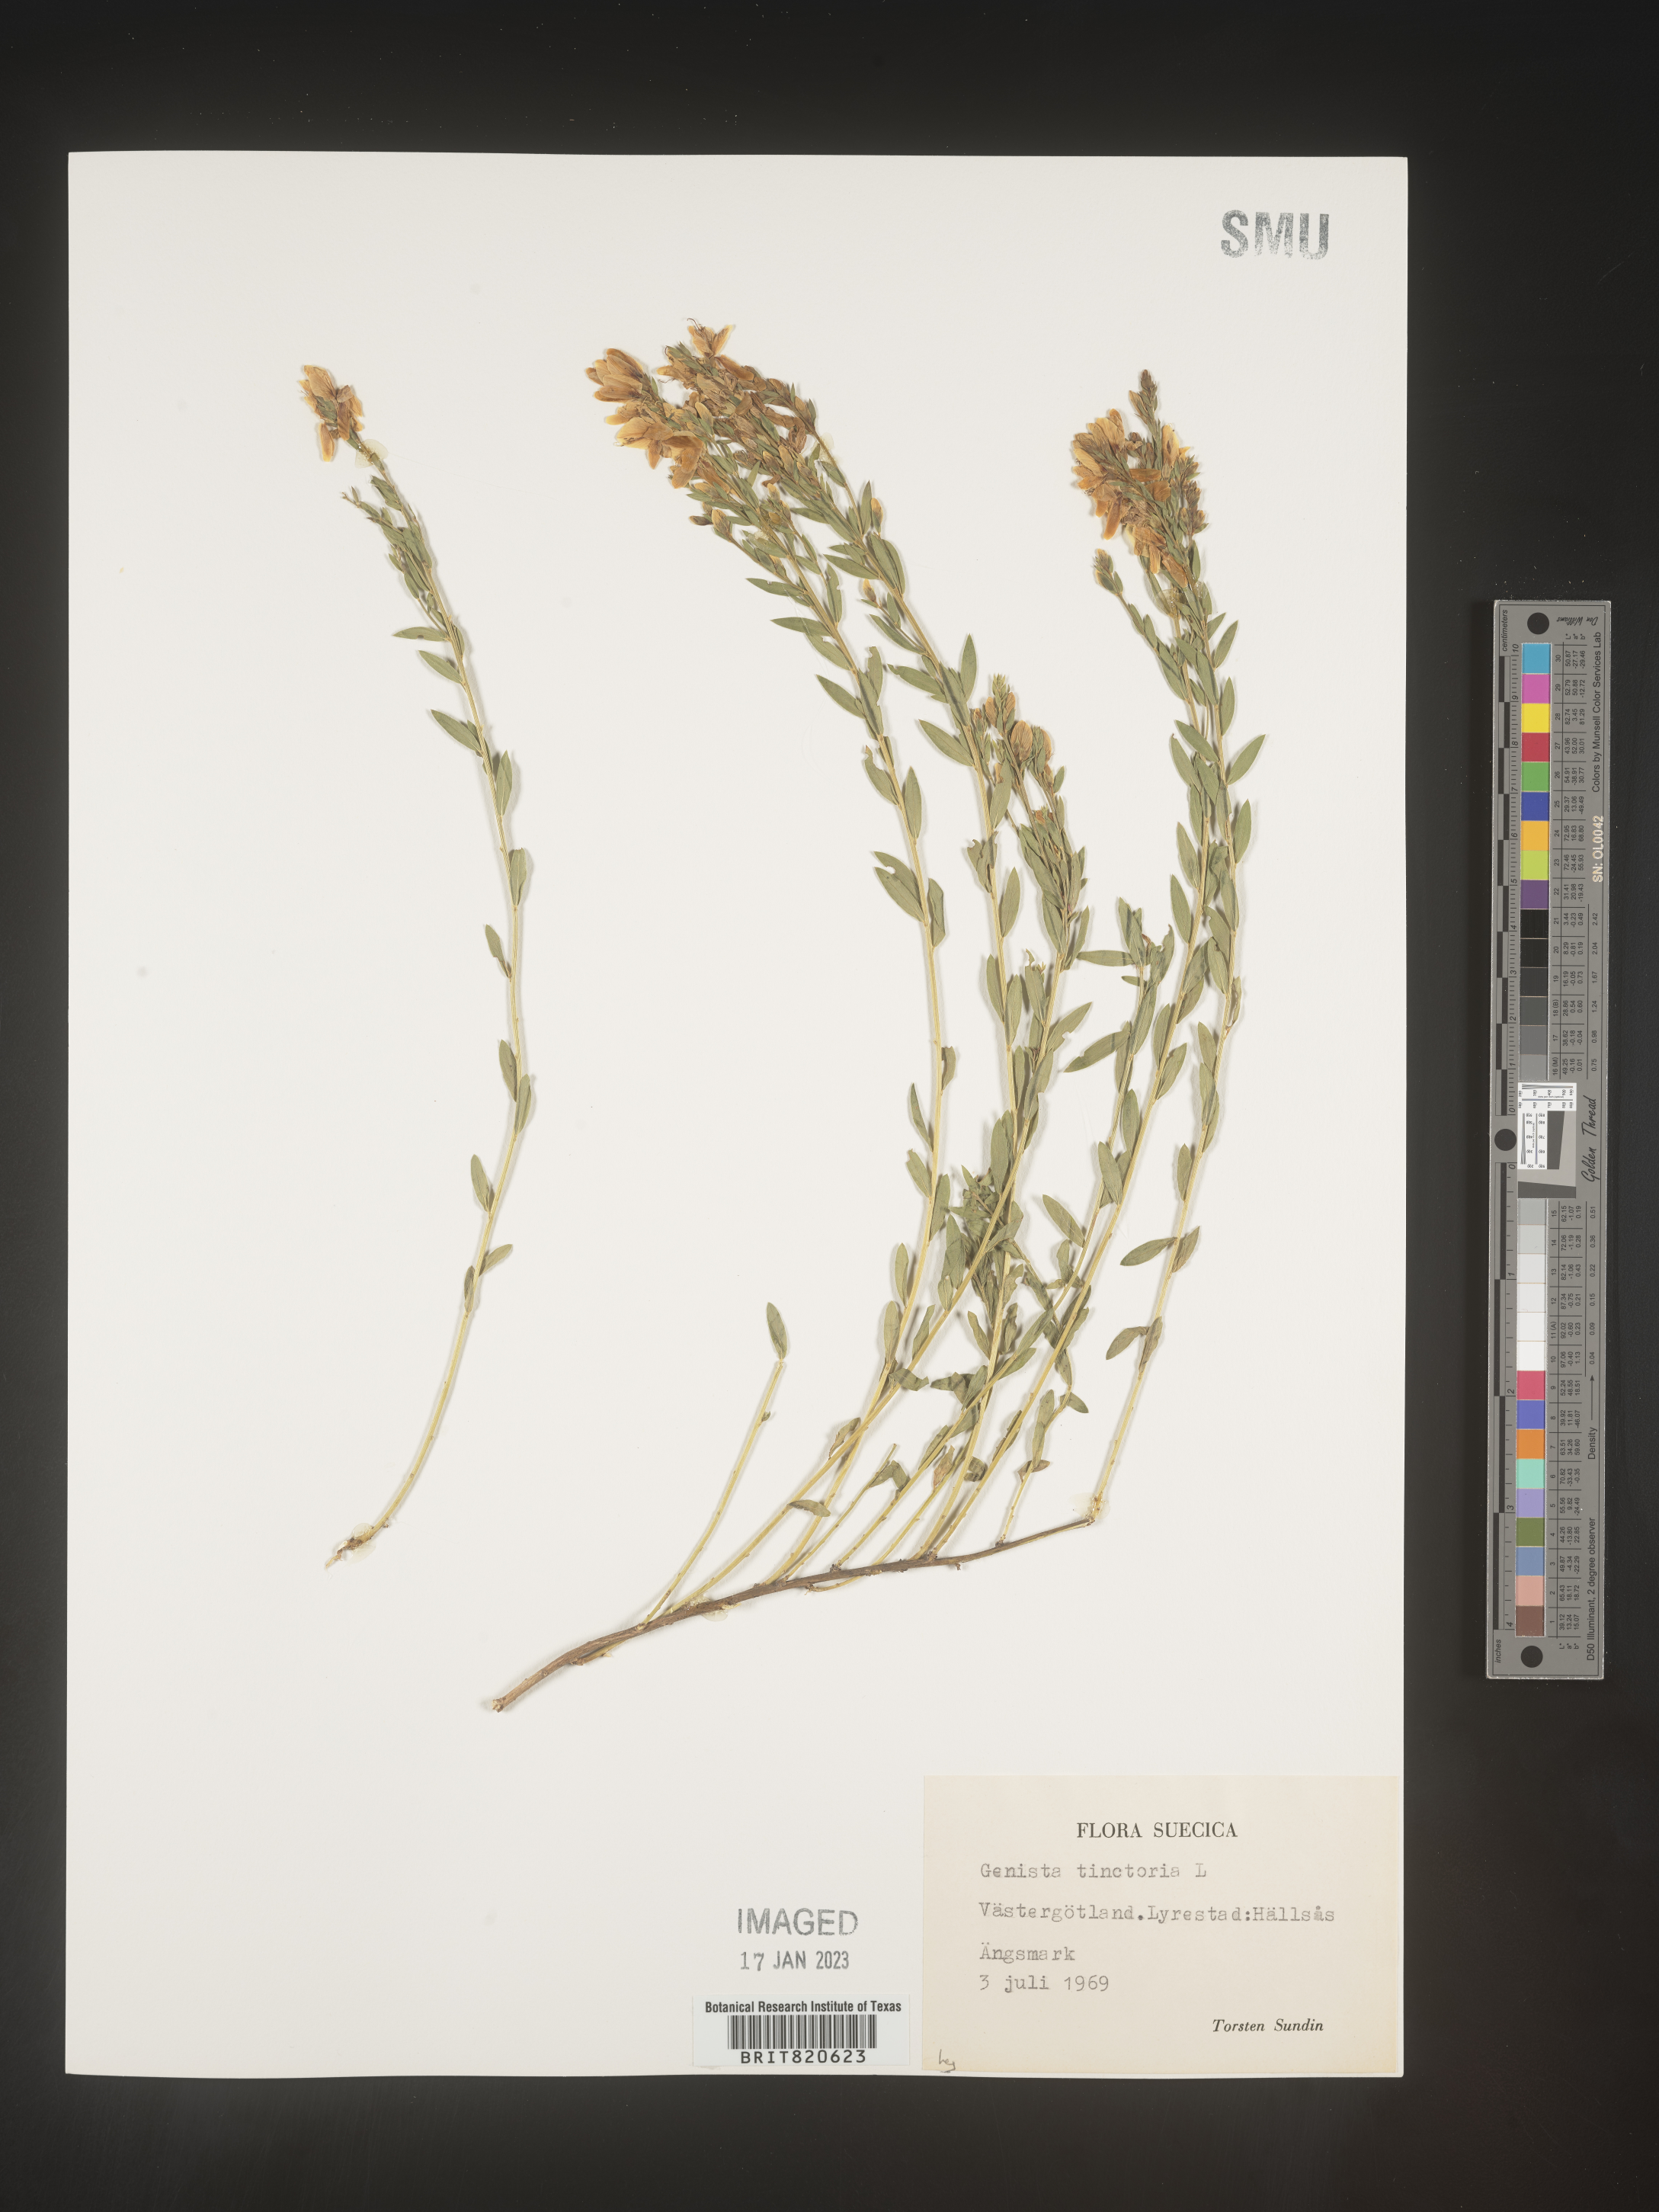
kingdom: Plantae
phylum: Tracheophyta
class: Magnoliopsida
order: Fabales
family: Fabaceae
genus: Genista
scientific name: Genista tinctoria
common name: Dyer's greenweed
